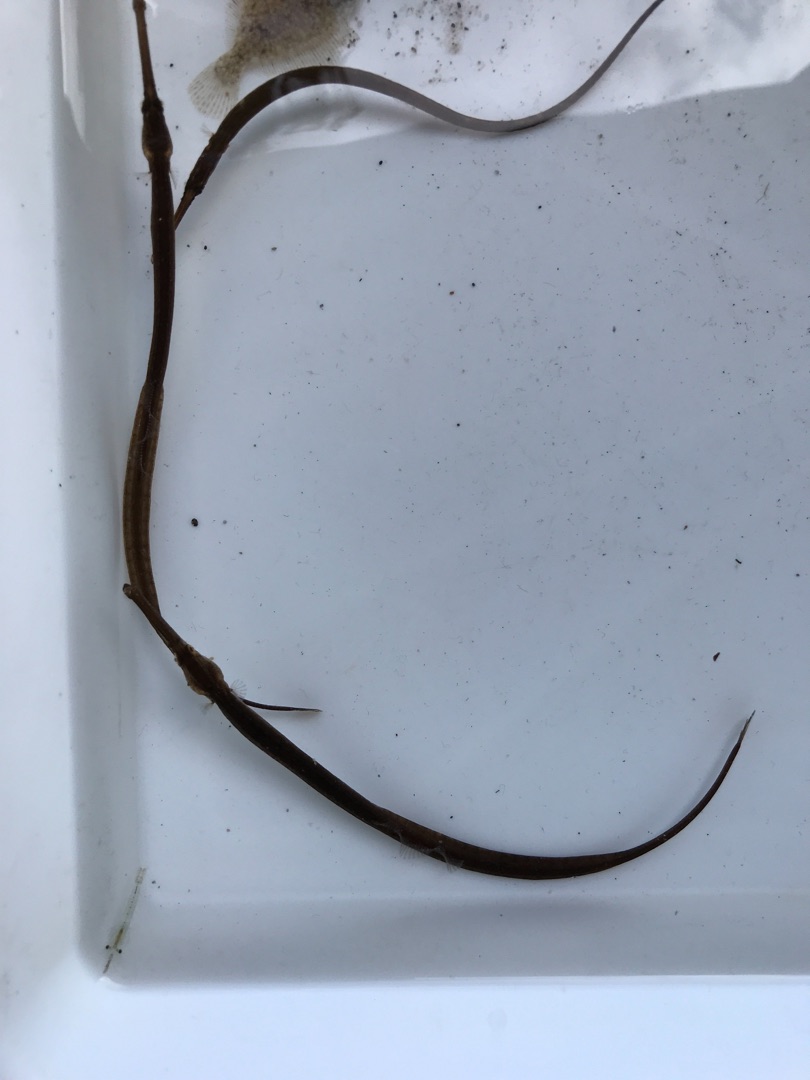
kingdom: Animalia
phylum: Chordata
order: Syngnathiformes
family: Syngnathidae
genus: Syngnathus
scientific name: Syngnathus typhle
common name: Almindelig tangnål
